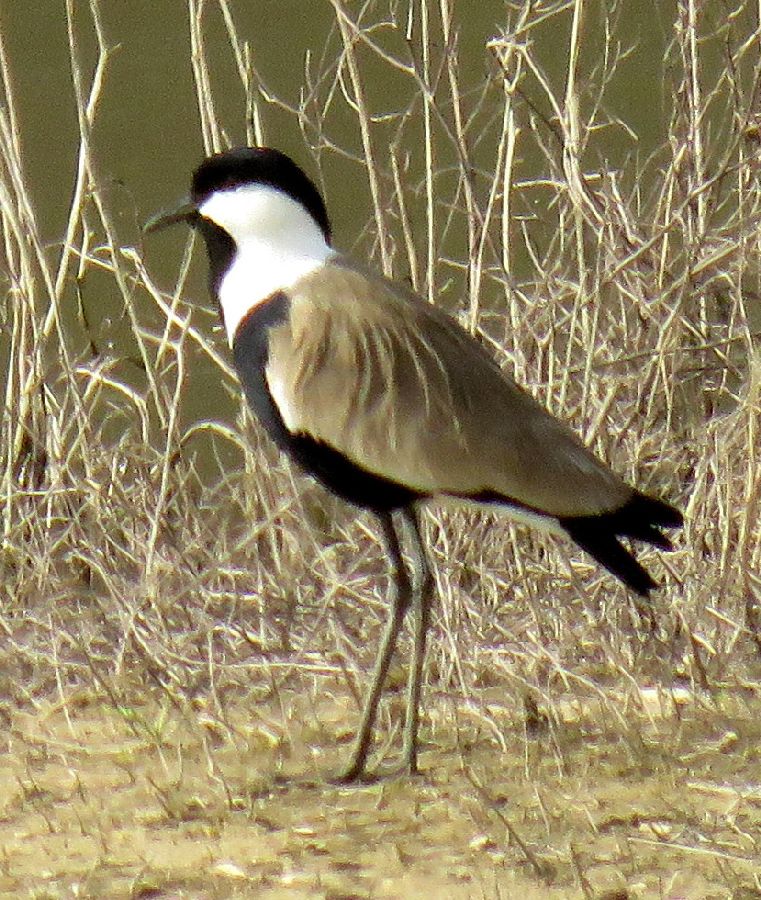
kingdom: Animalia
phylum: Chordata
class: Aves
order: Charadriiformes
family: Charadriidae
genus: Vanellus
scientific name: Vanellus spinosus
